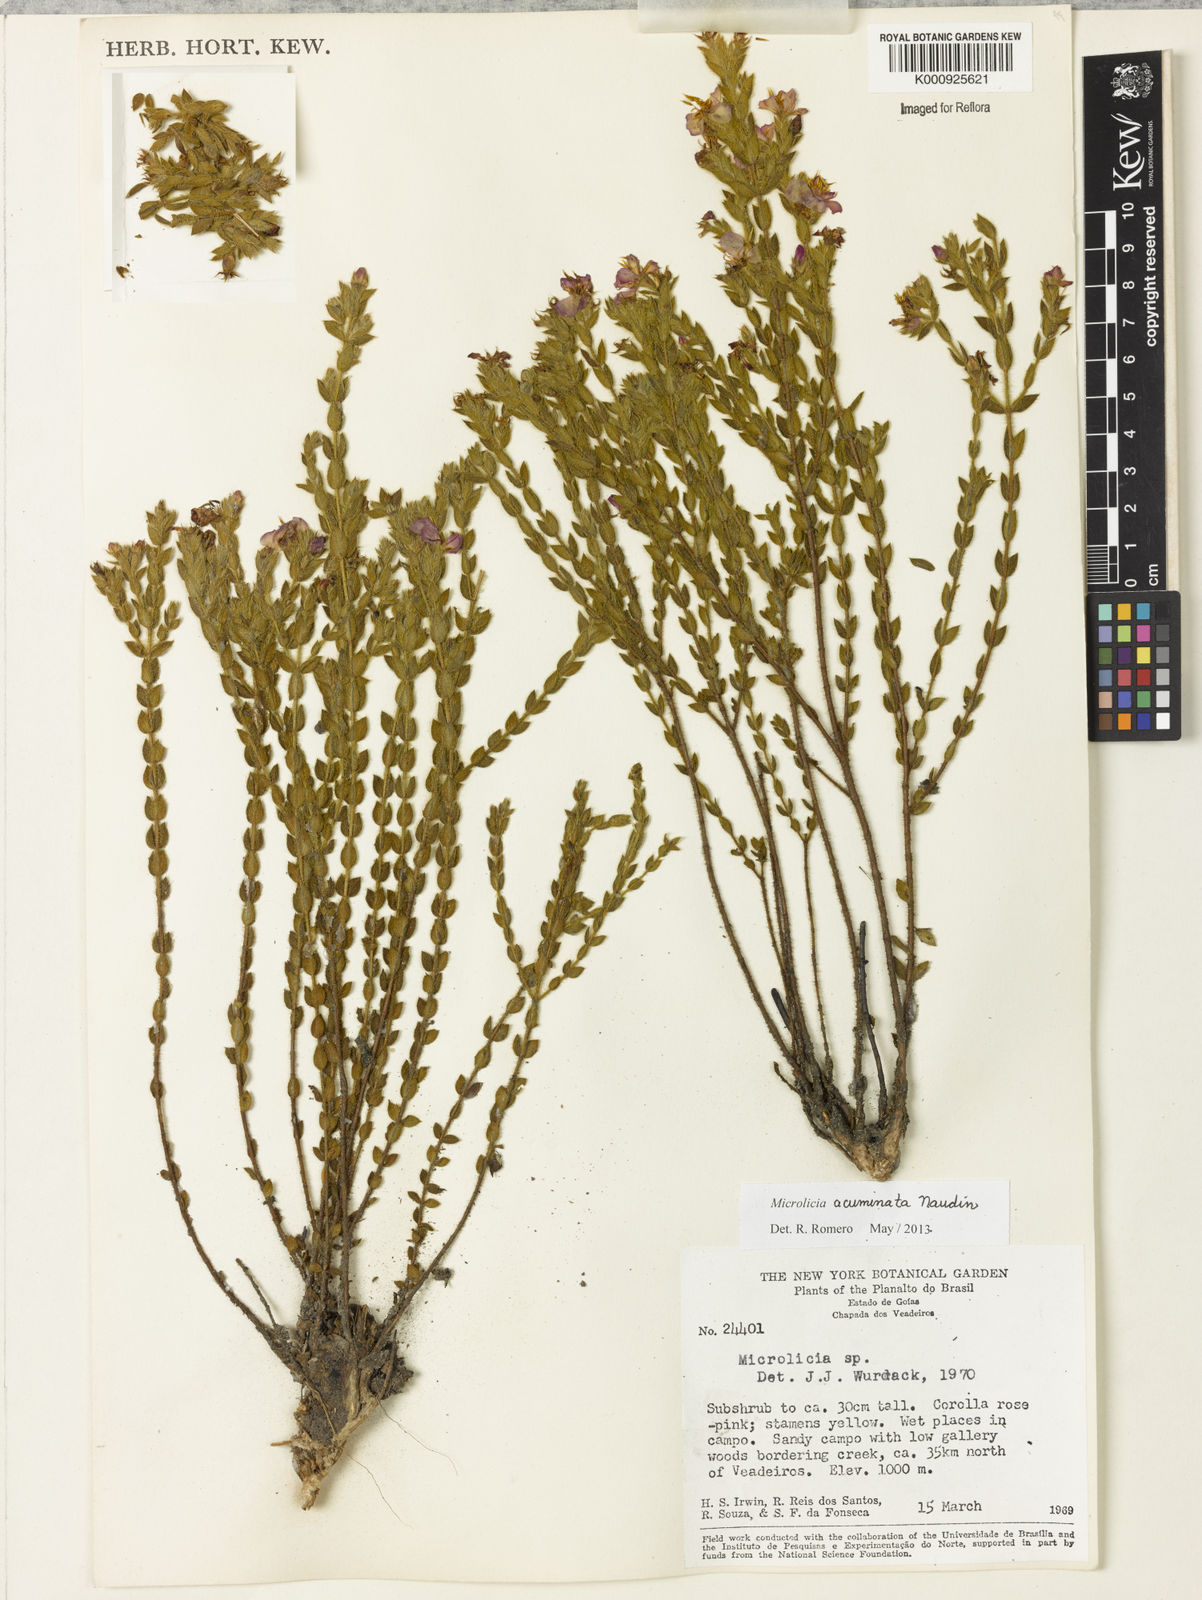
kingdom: Plantae
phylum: Tracheophyta
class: Magnoliopsida
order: Myrtales
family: Melastomataceae
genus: Microlicia
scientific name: Microlicia hirticalyx
